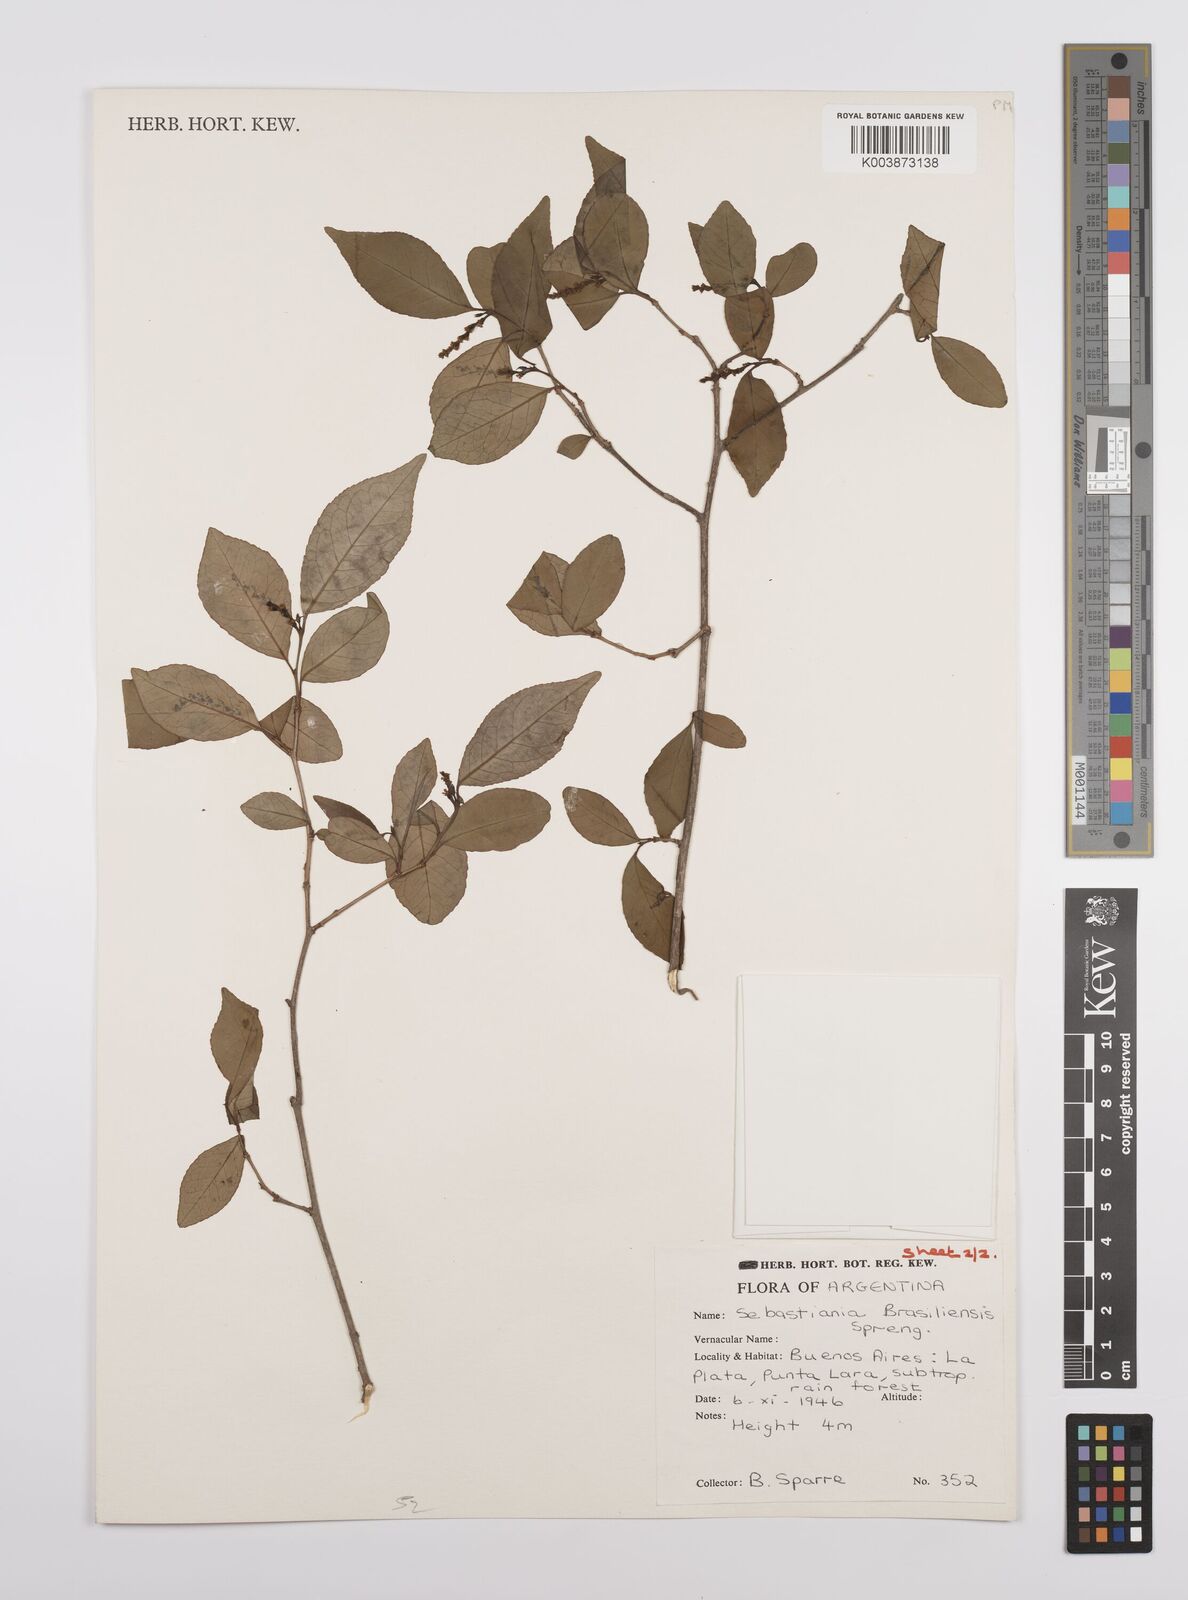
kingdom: Plantae
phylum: Tracheophyta
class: Magnoliopsida
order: Malpighiales
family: Euphorbiaceae
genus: Sebastiania
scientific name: Sebastiania brasiliensis
